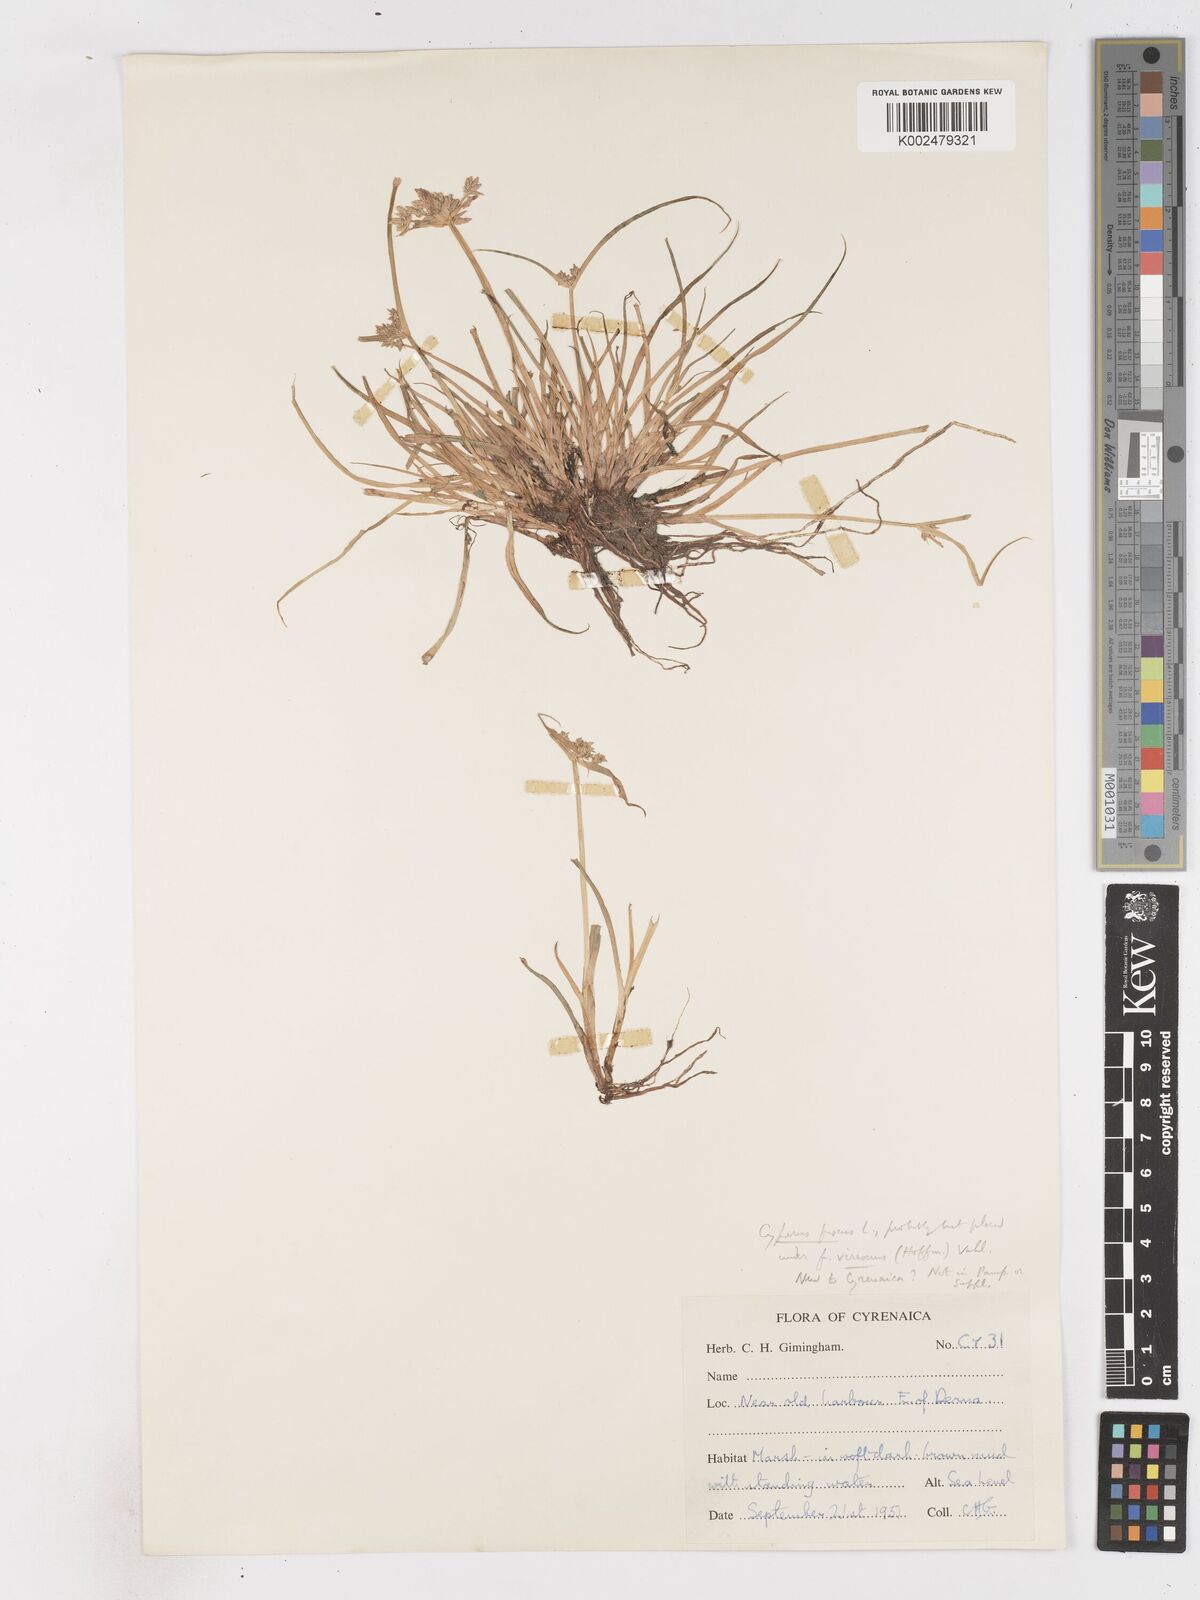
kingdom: Plantae
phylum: Tracheophyta
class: Liliopsida
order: Poales
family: Cyperaceae
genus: Cyperus
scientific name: Cyperus fuscus
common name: Brown galingale
